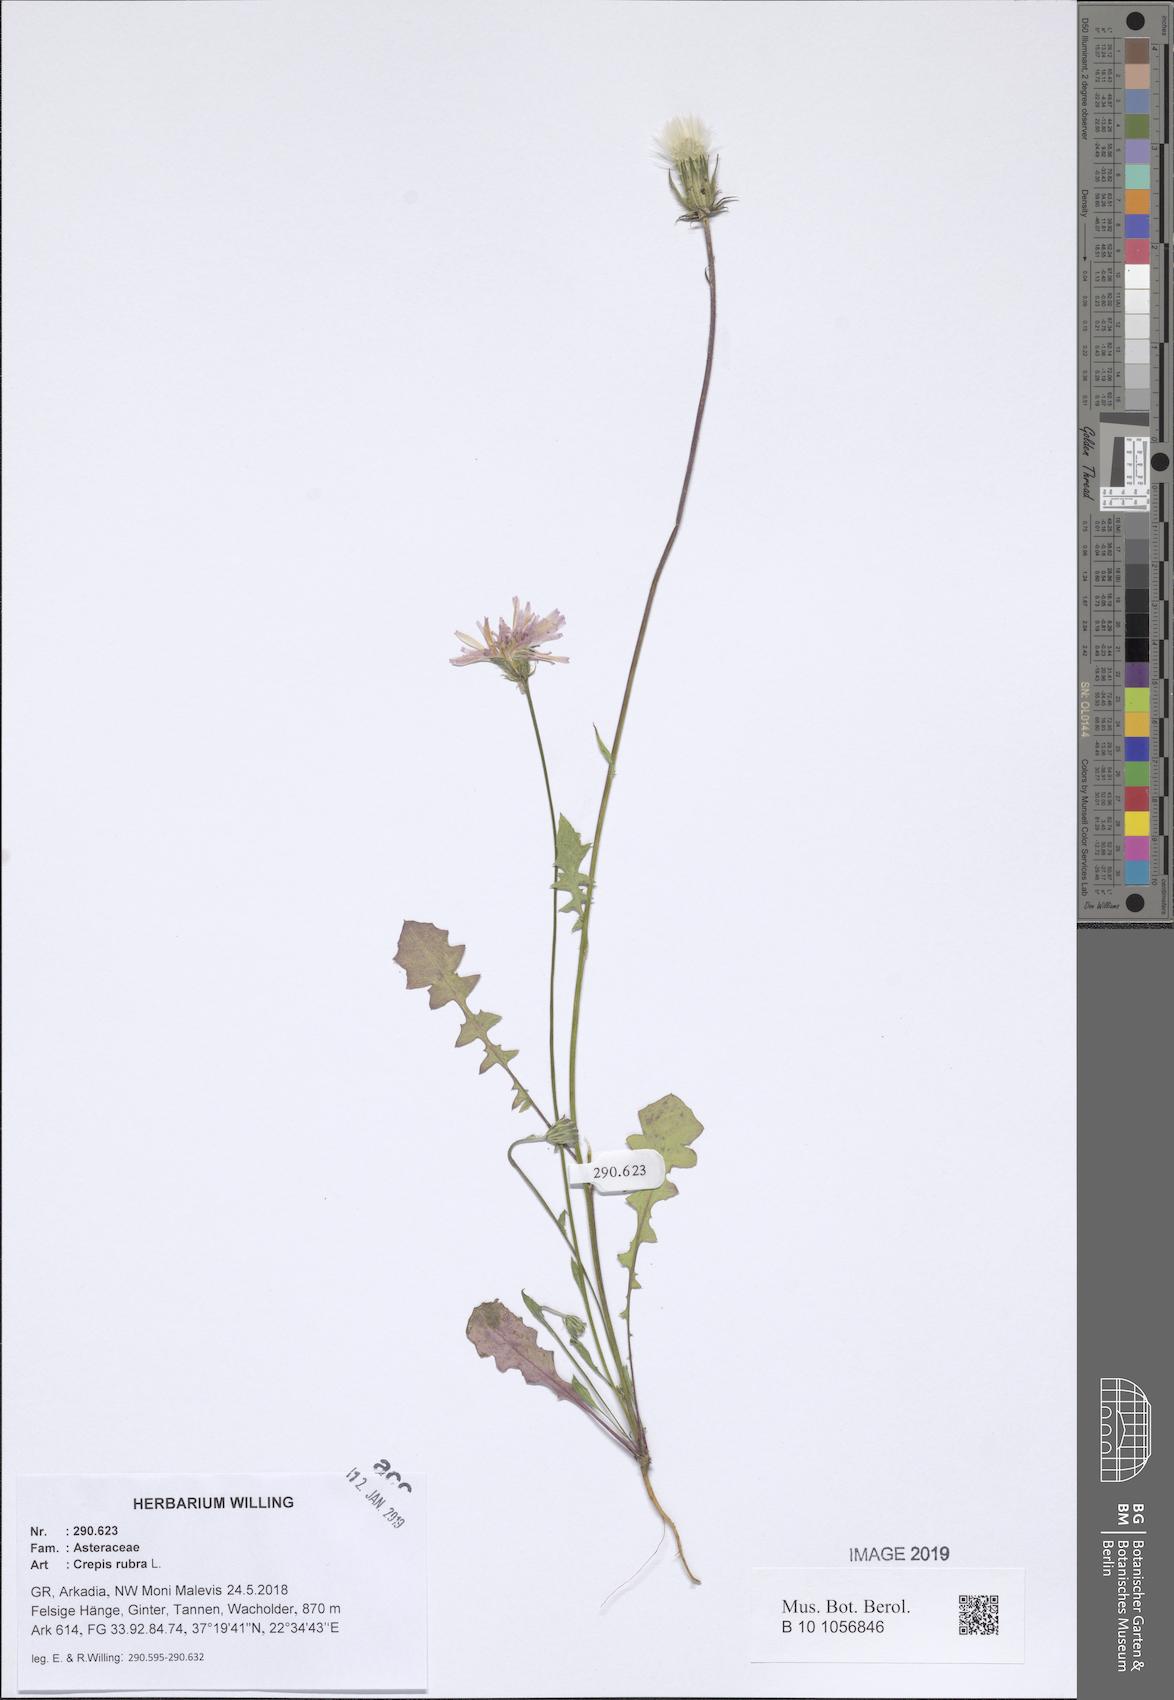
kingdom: Plantae
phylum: Tracheophyta
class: Magnoliopsida
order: Asterales
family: Asteraceae
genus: Crepis
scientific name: Crepis rubra
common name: Pink hawk's-beard
